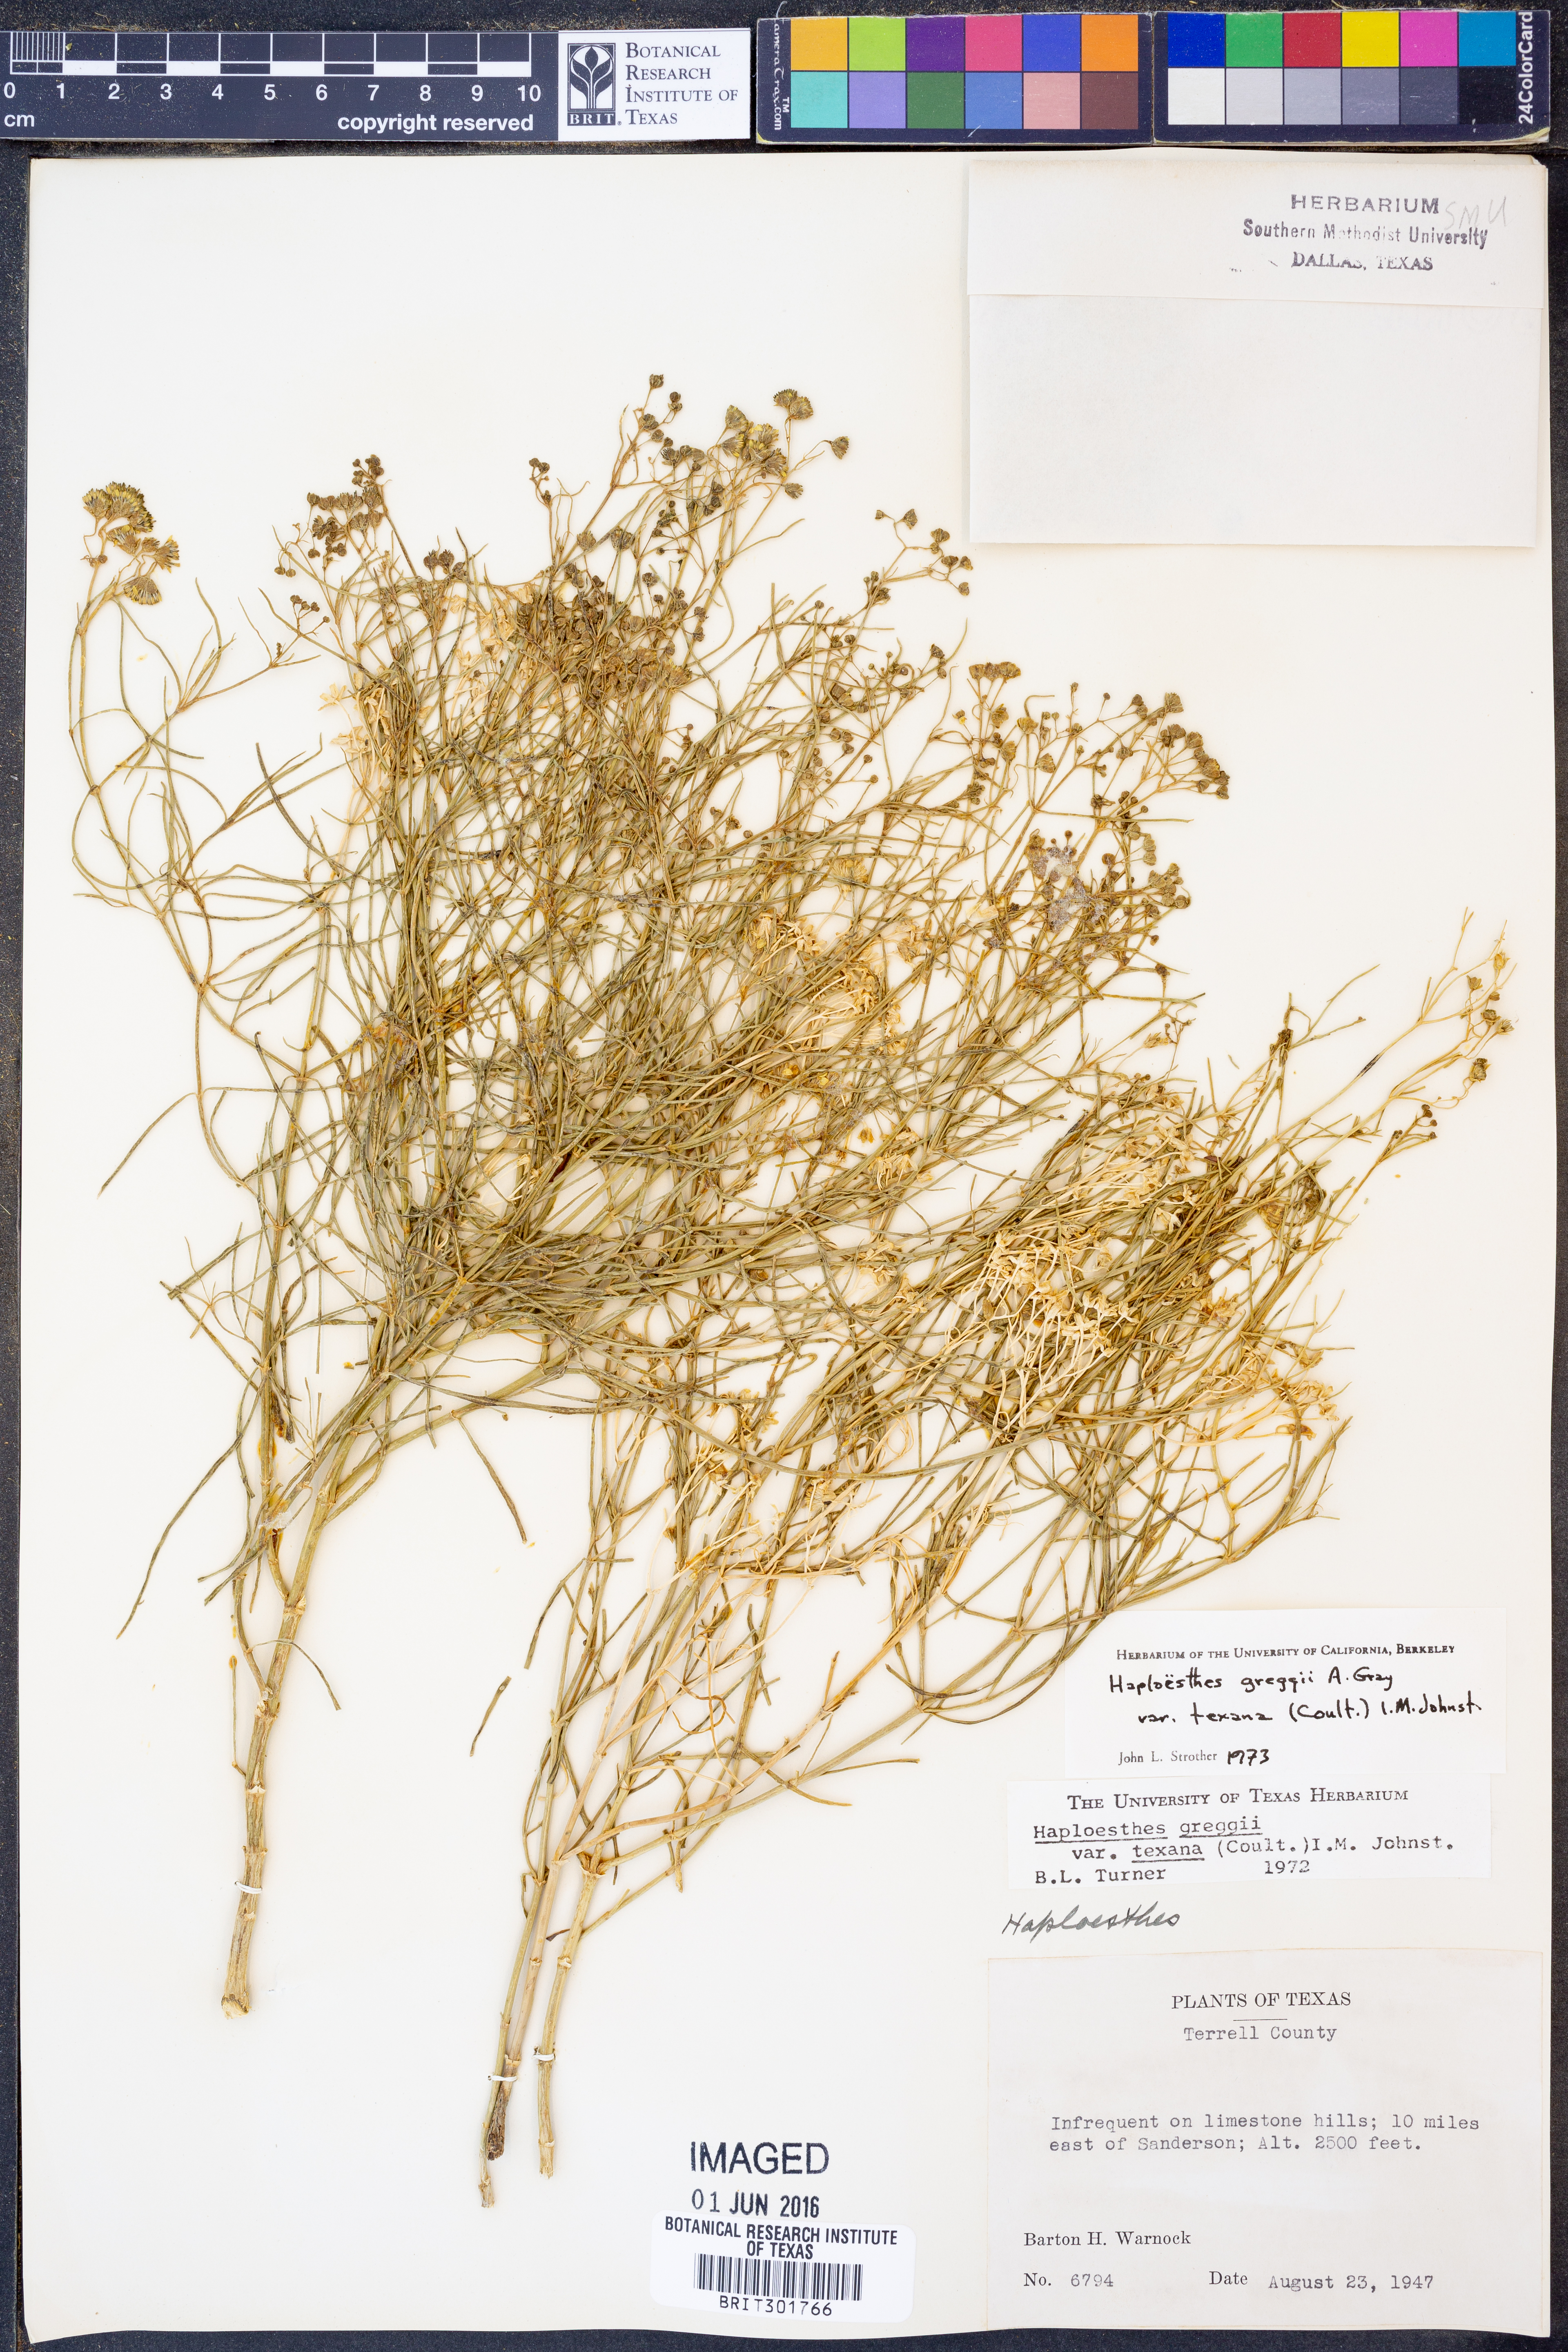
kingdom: Plantae
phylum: Tracheophyta
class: Magnoliopsida
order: Asterales
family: Asteraceae
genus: Haploesthes
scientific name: Haploesthes greggii
